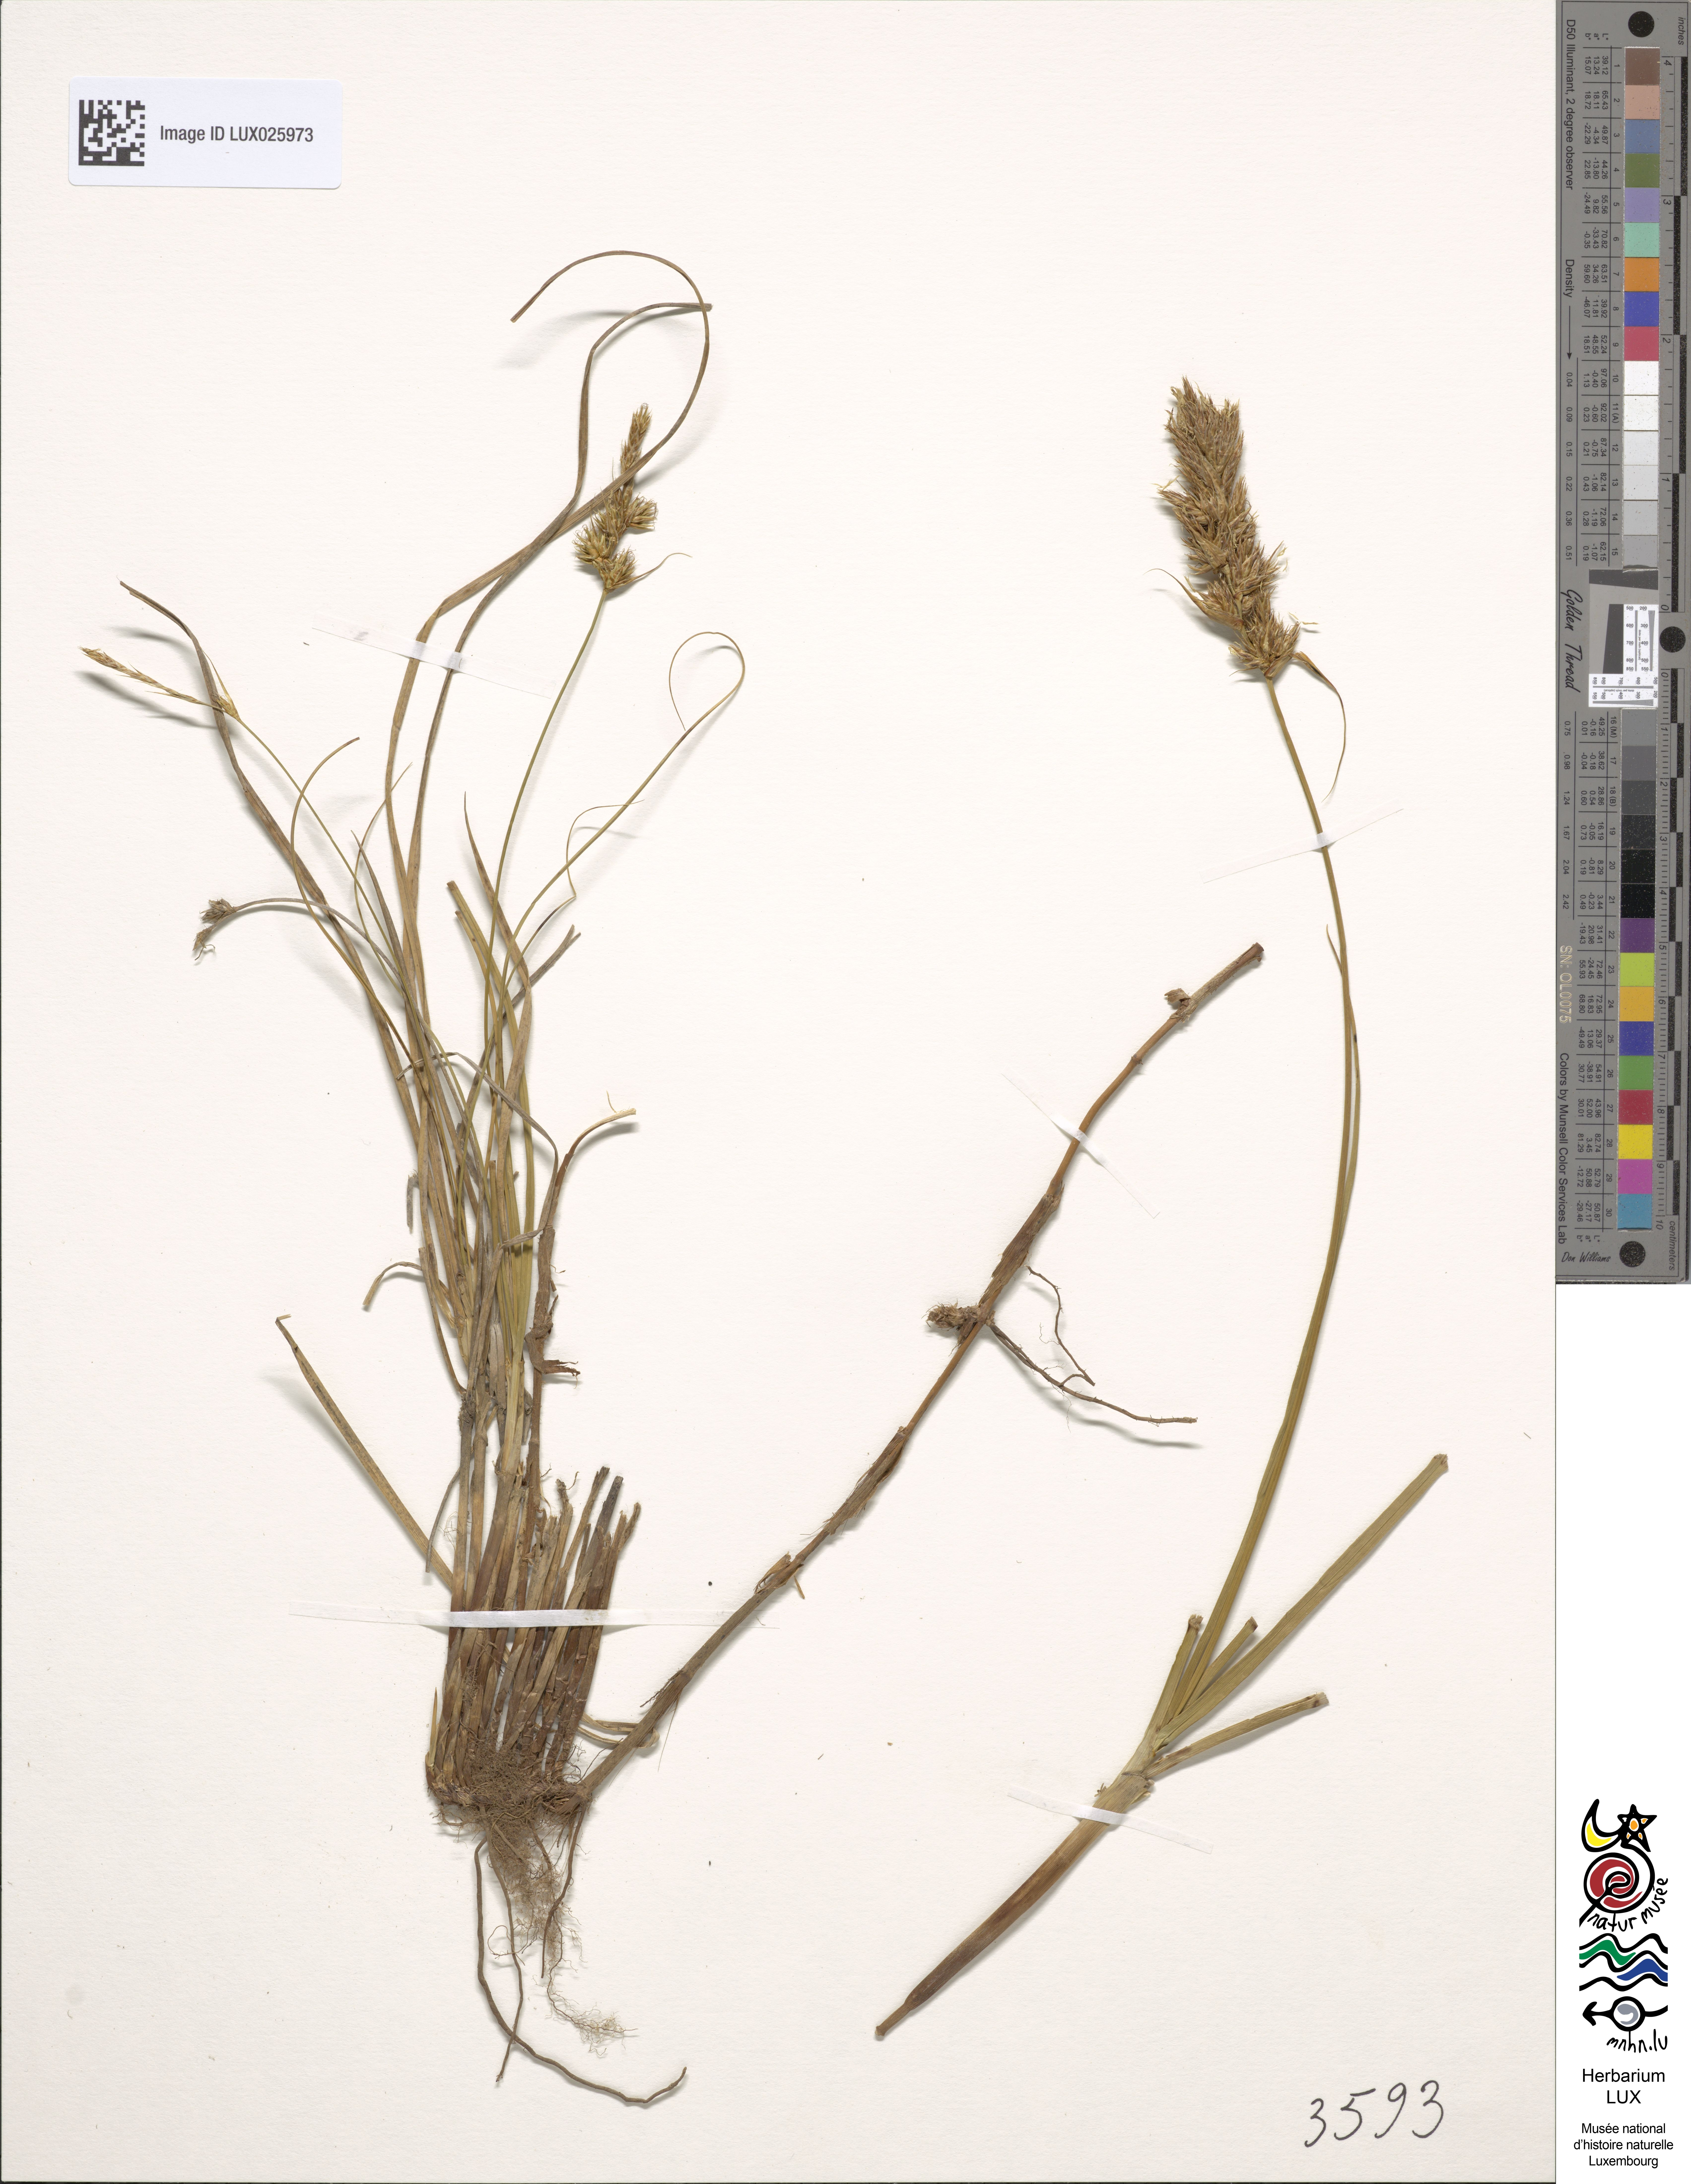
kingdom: Plantae
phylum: Tracheophyta
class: Liliopsida
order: Poales
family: Cyperaceae
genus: Carex
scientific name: Carex arenaria
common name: Sand sedge
